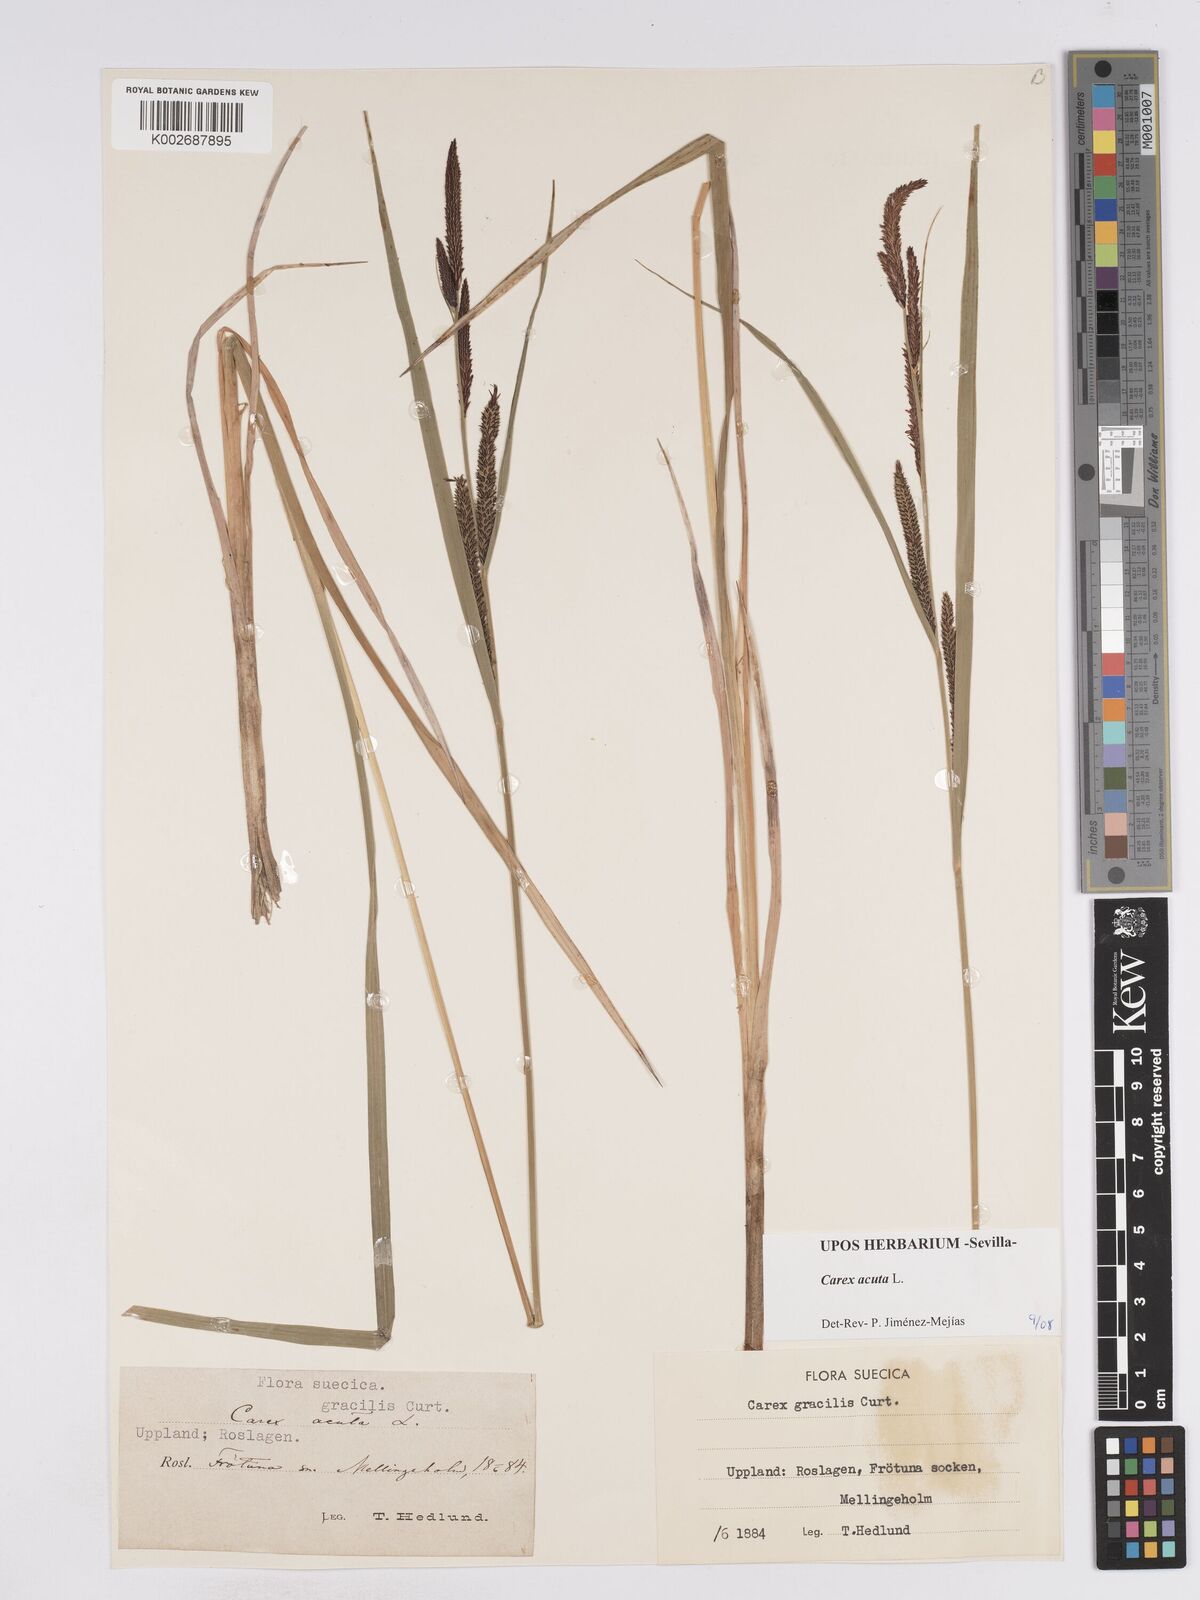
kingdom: Plantae
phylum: Tracheophyta
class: Liliopsida
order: Poales
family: Cyperaceae
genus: Carex
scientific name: Carex acuta
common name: Slender tufted-sedge
